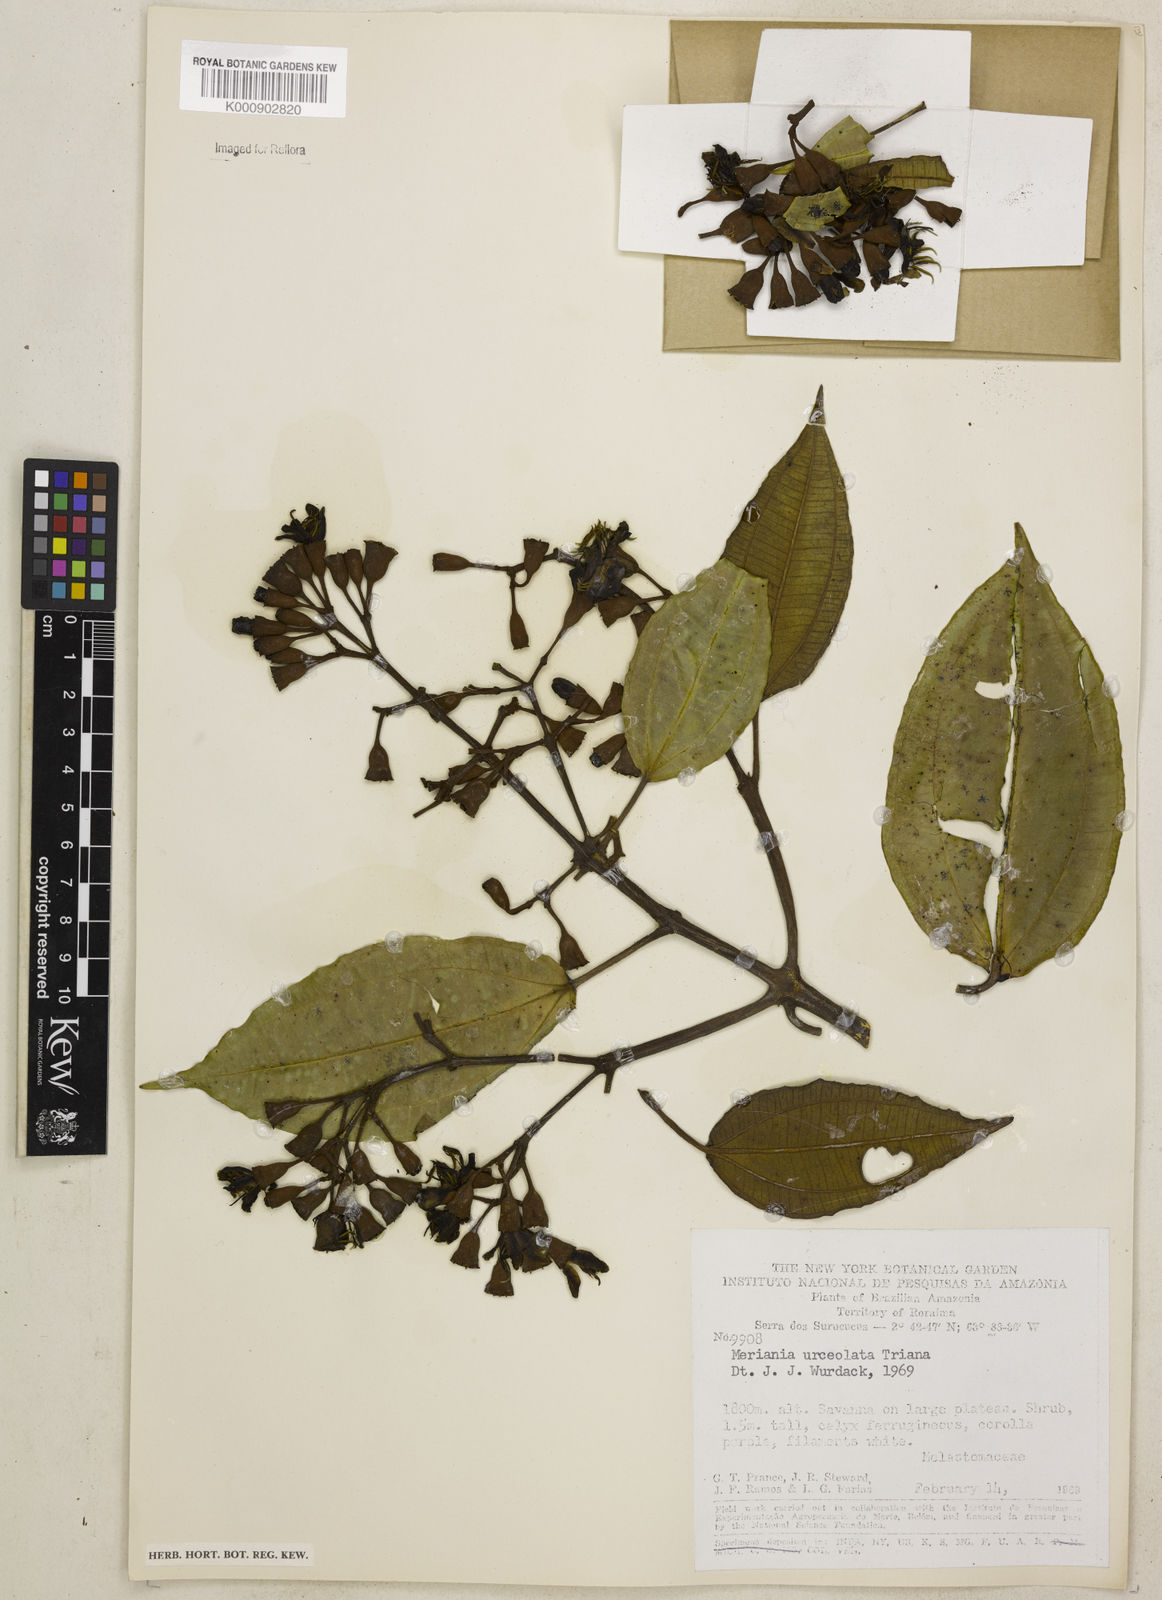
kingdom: Plantae
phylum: Tracheophyta
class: Magnoliopsida
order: Myrtales
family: Melastomataceae
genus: Meriania
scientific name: Meriania urceolata
